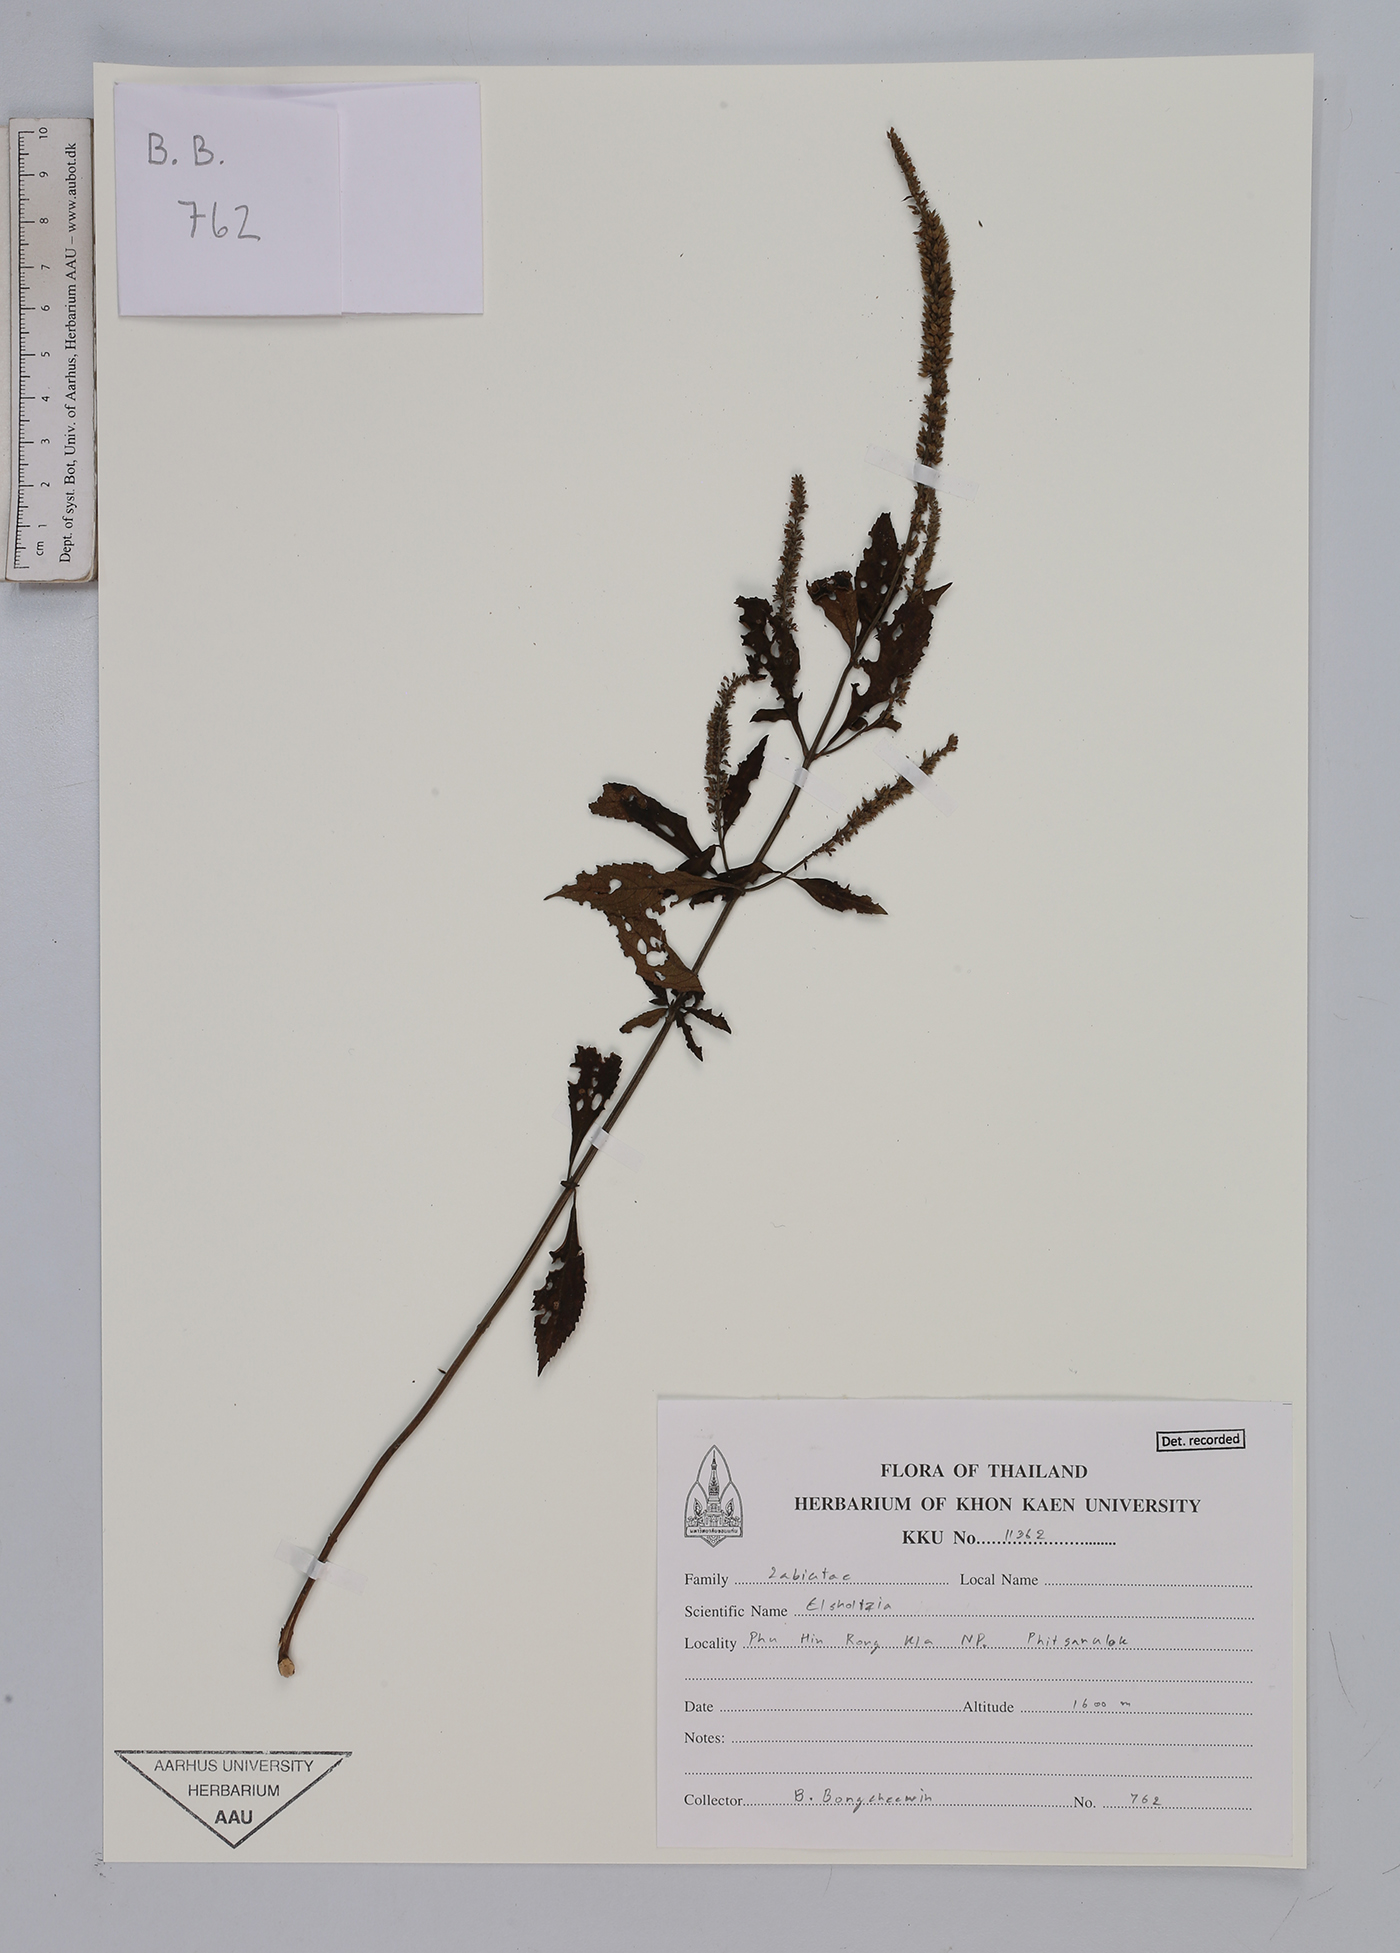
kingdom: Plantae
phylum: Tracheophyta
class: Magnoliopsida
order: Lamiales
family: Lamiaceae
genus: Elsholtzia
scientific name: Elsholtzia
